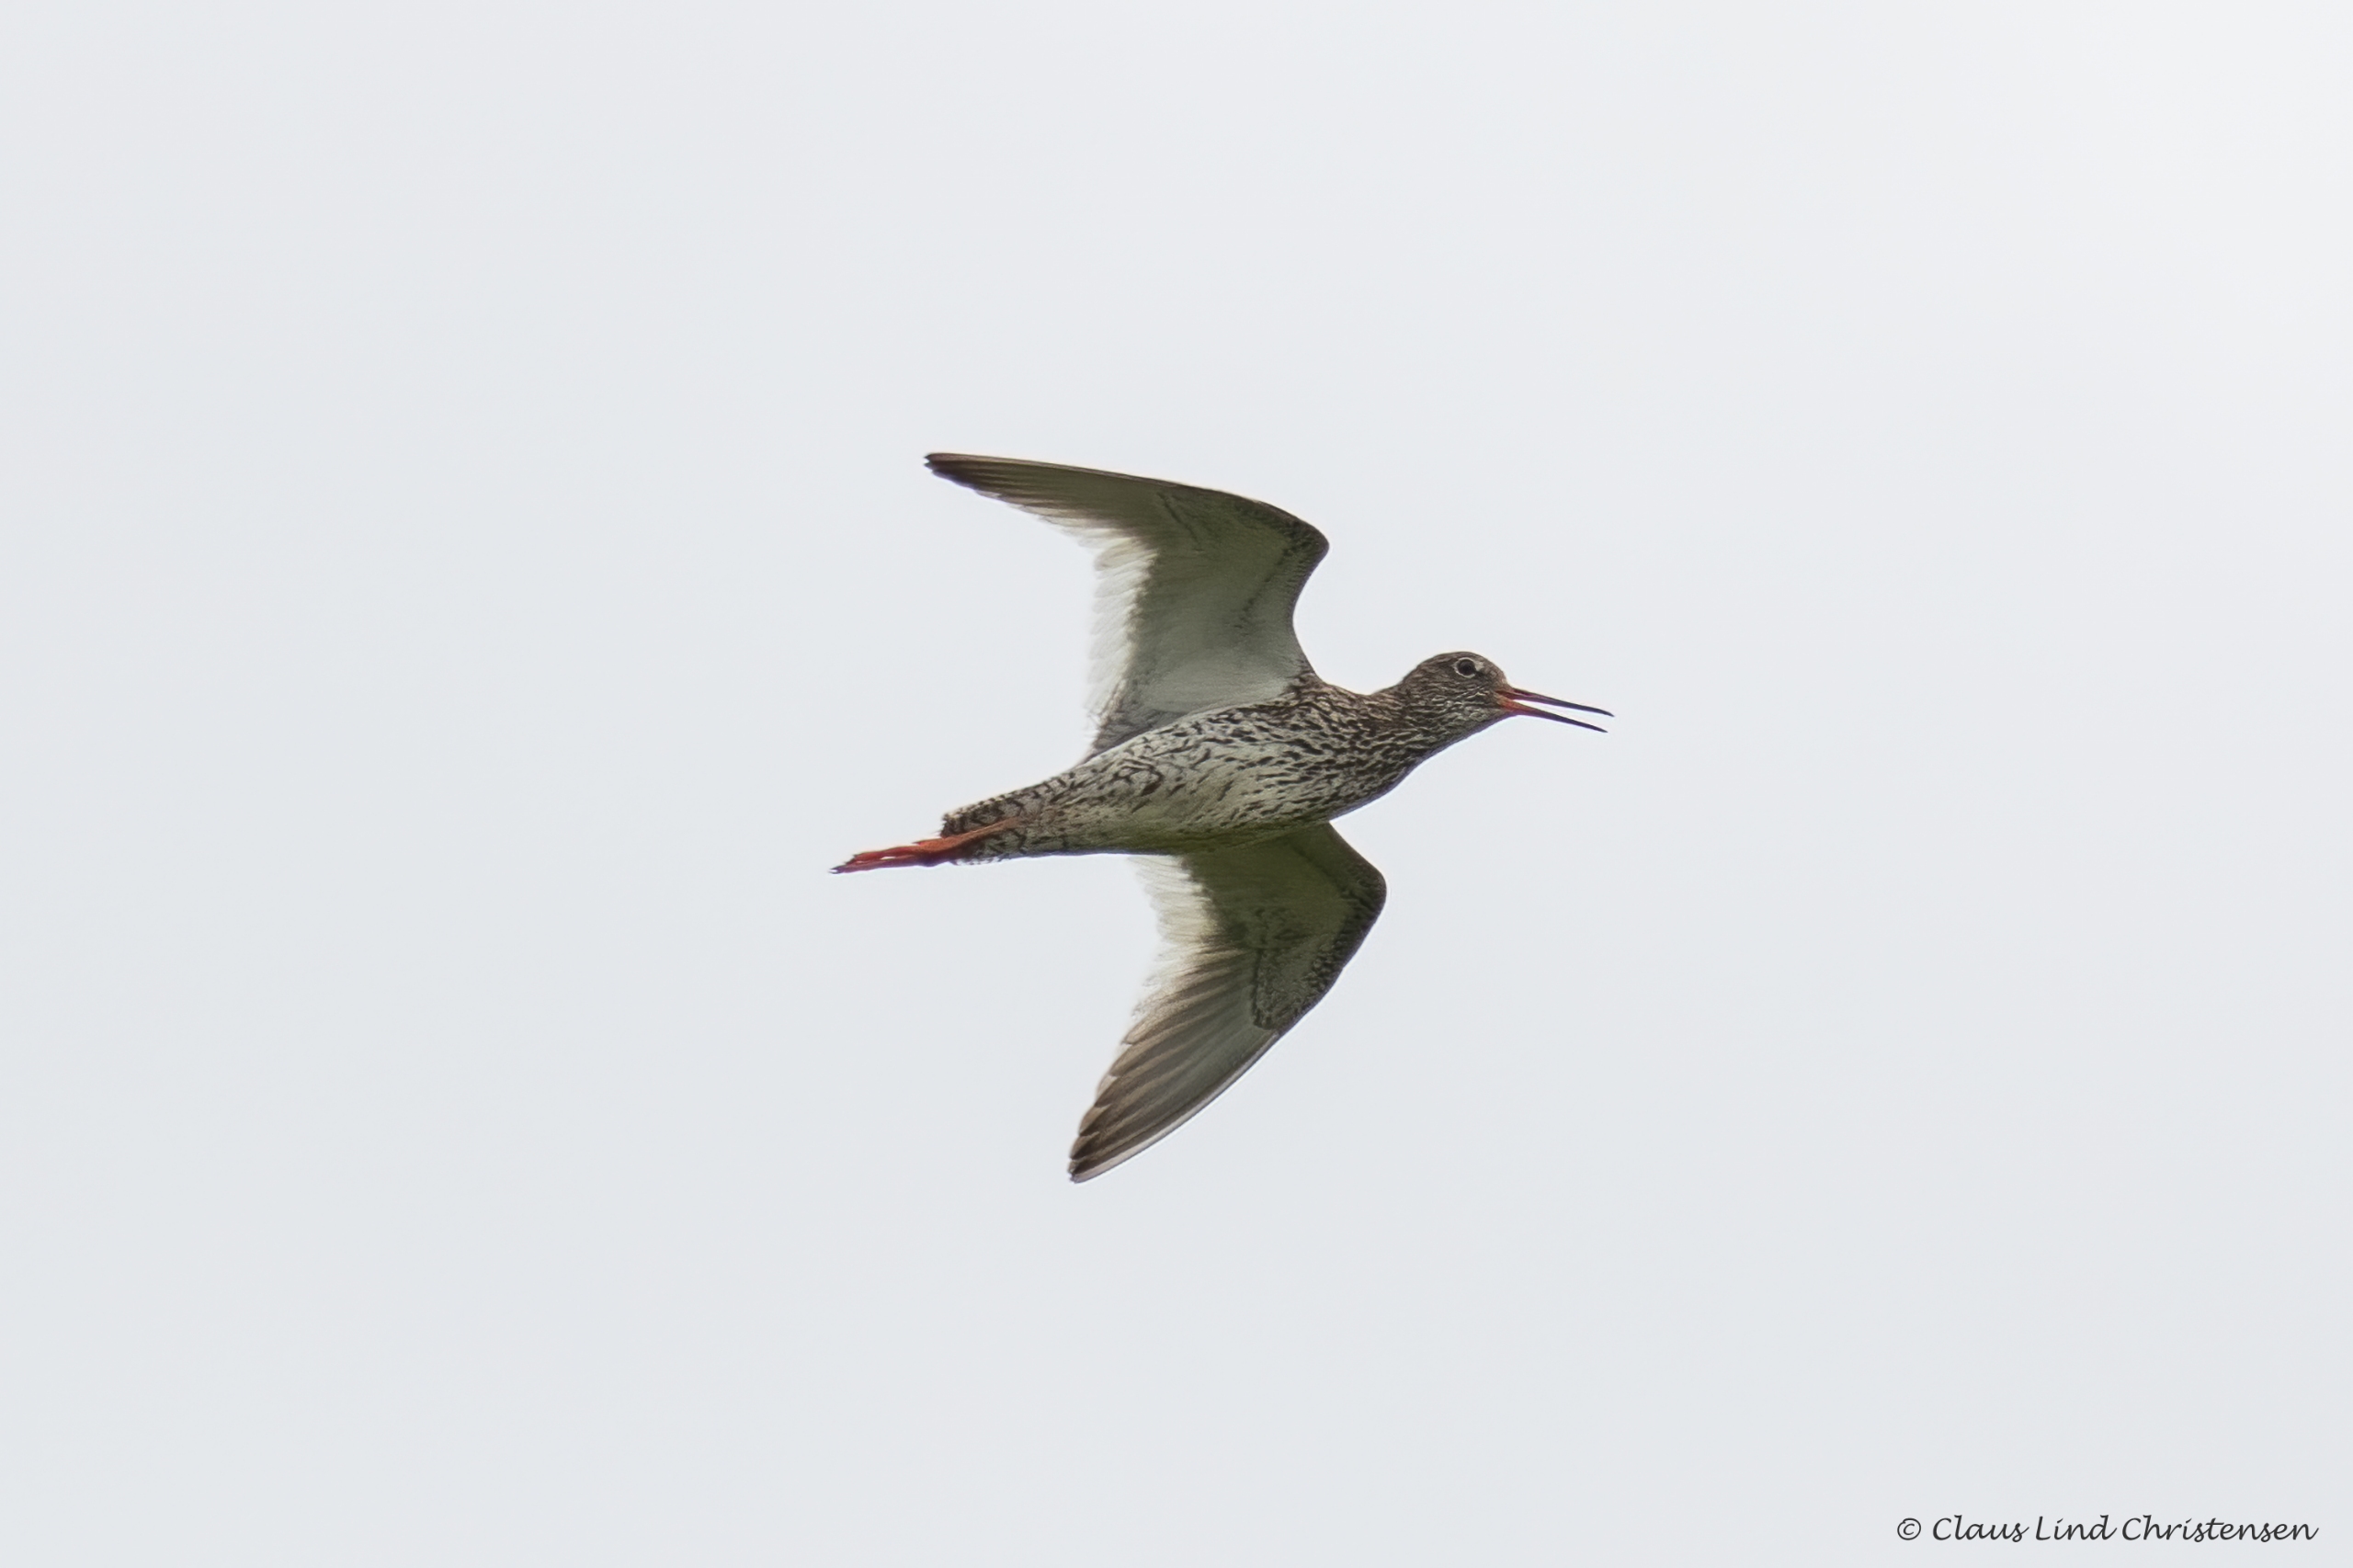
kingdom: Animalia
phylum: Chordata
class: Aves
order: Charadriiformes
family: Scolopacidae
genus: Tringa
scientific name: Tringa totanus
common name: Rødben
